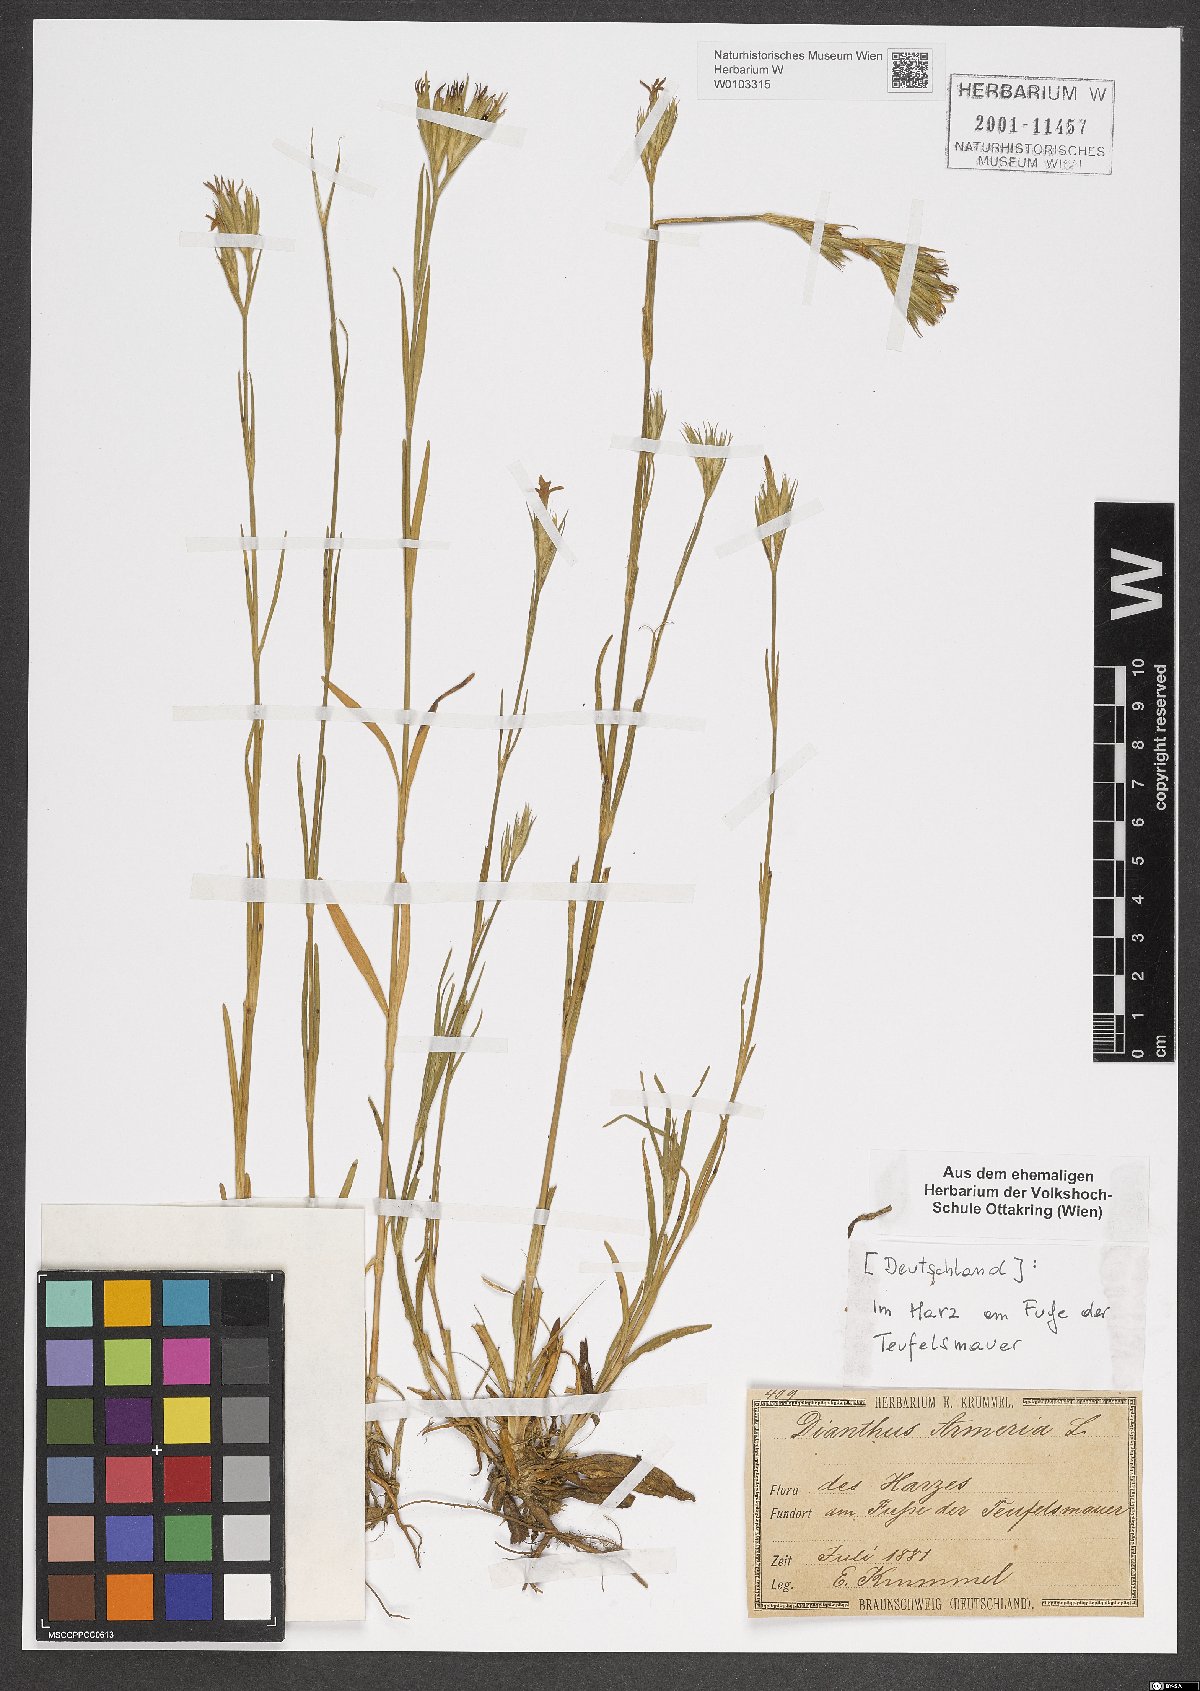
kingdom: Plantae
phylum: Tracheophyta
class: Magnoliopsida
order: Caryophyllales
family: Caryophyllaceae
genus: Dianthus
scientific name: Dianthus armeria
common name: Deptford pink
